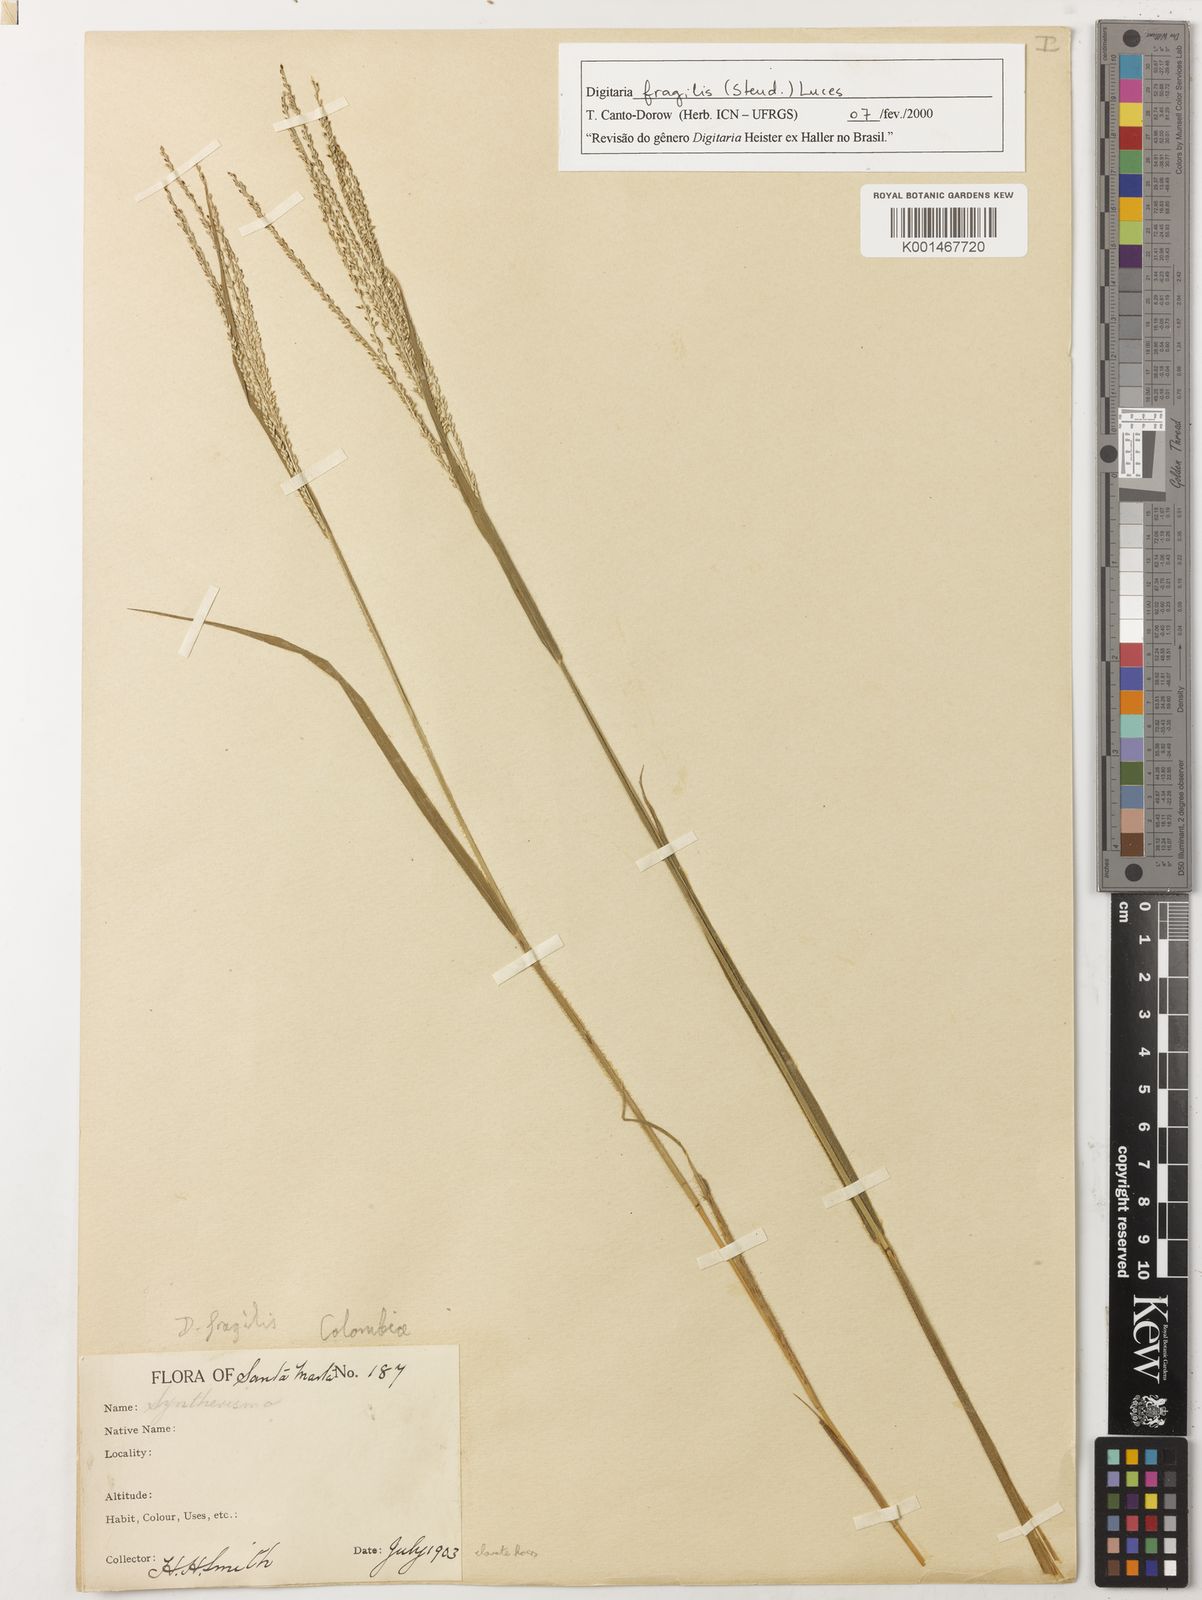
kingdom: Plantae
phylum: Tracheophyta
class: Liliopsida
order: Poales
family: Poaceae
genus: Digitaria
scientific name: Digitaria fragilis
